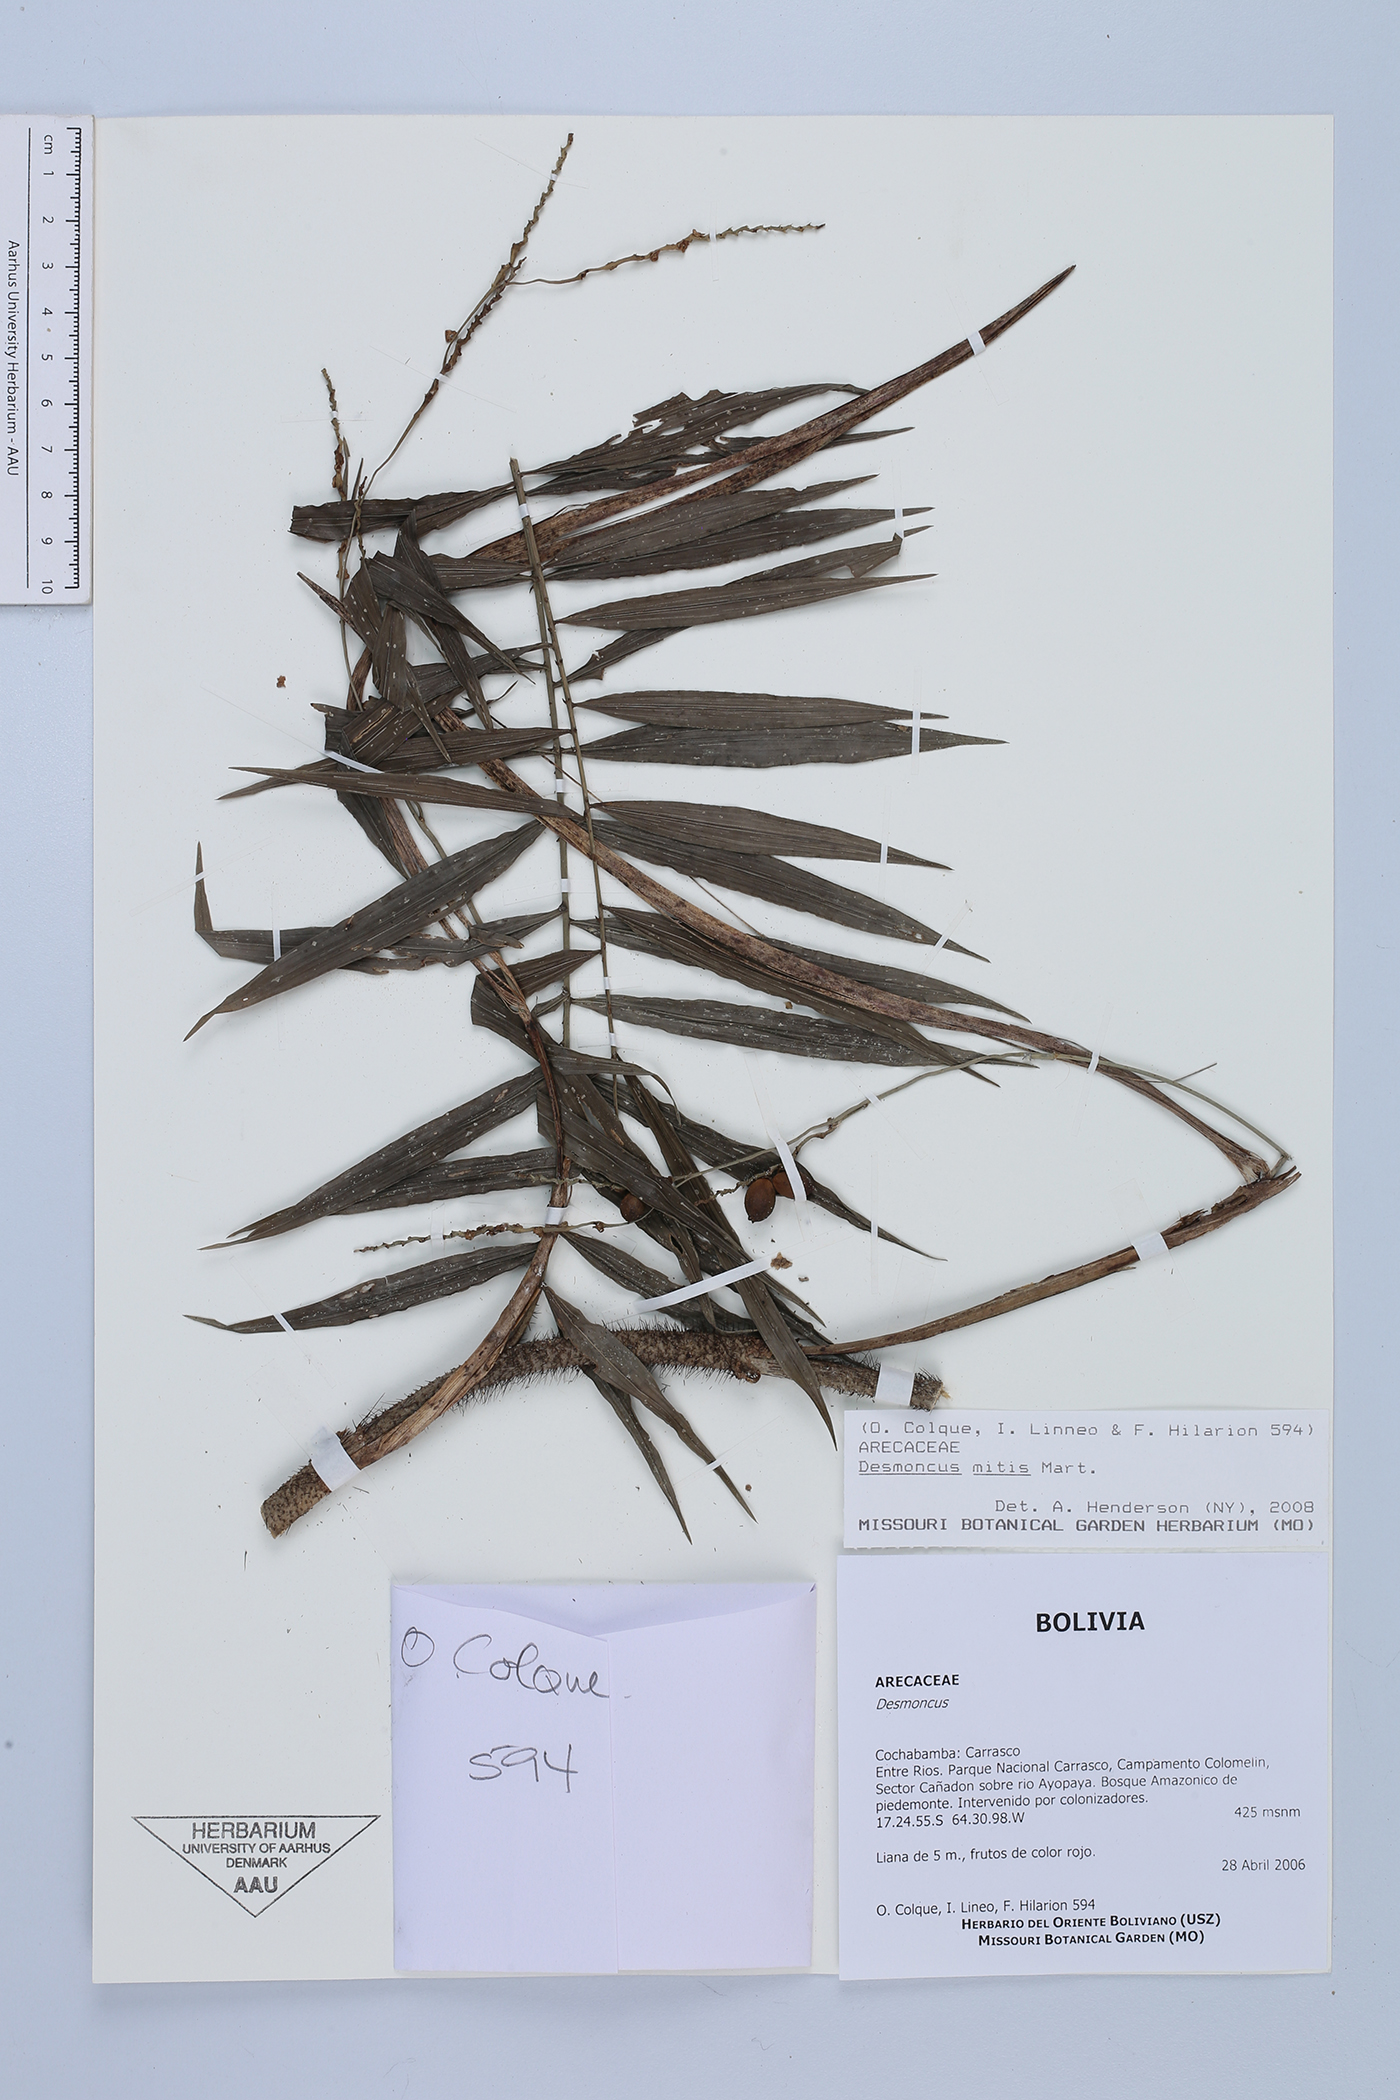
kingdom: Plantae
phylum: Tracheophyta
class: Liliopsida
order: Arecales
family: Arecaceae
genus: Desmoncus
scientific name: Desmoncus mitis
